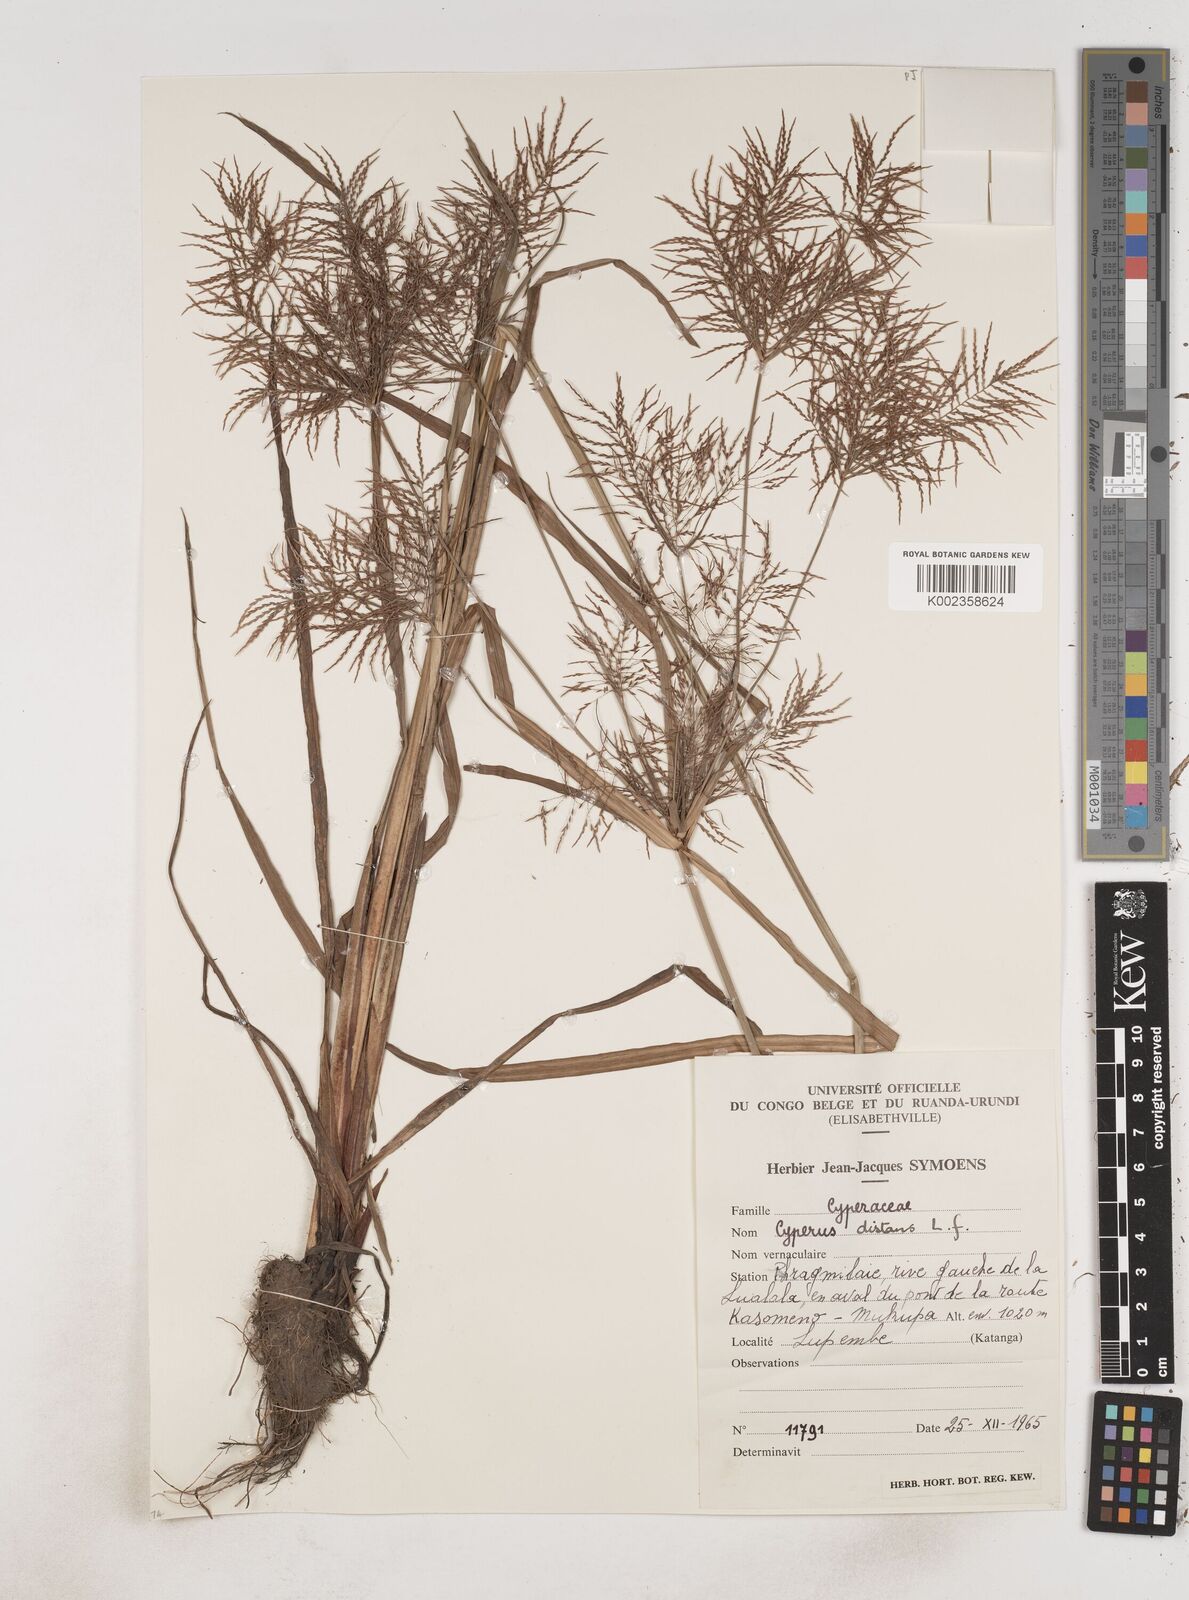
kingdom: Plantae
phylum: Tracheophyta
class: Liliopsida
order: Poales
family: Cyperaceae
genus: Cyperus
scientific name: Cyperus distans
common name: Slender cyperus
